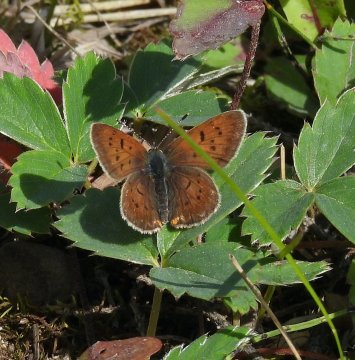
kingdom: Animalia
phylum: Arthropoda
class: Insecta
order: Lepidoptera
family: Lycaenidae
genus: Epidemia
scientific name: Epidemia dorcas
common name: Dorcas Copper
